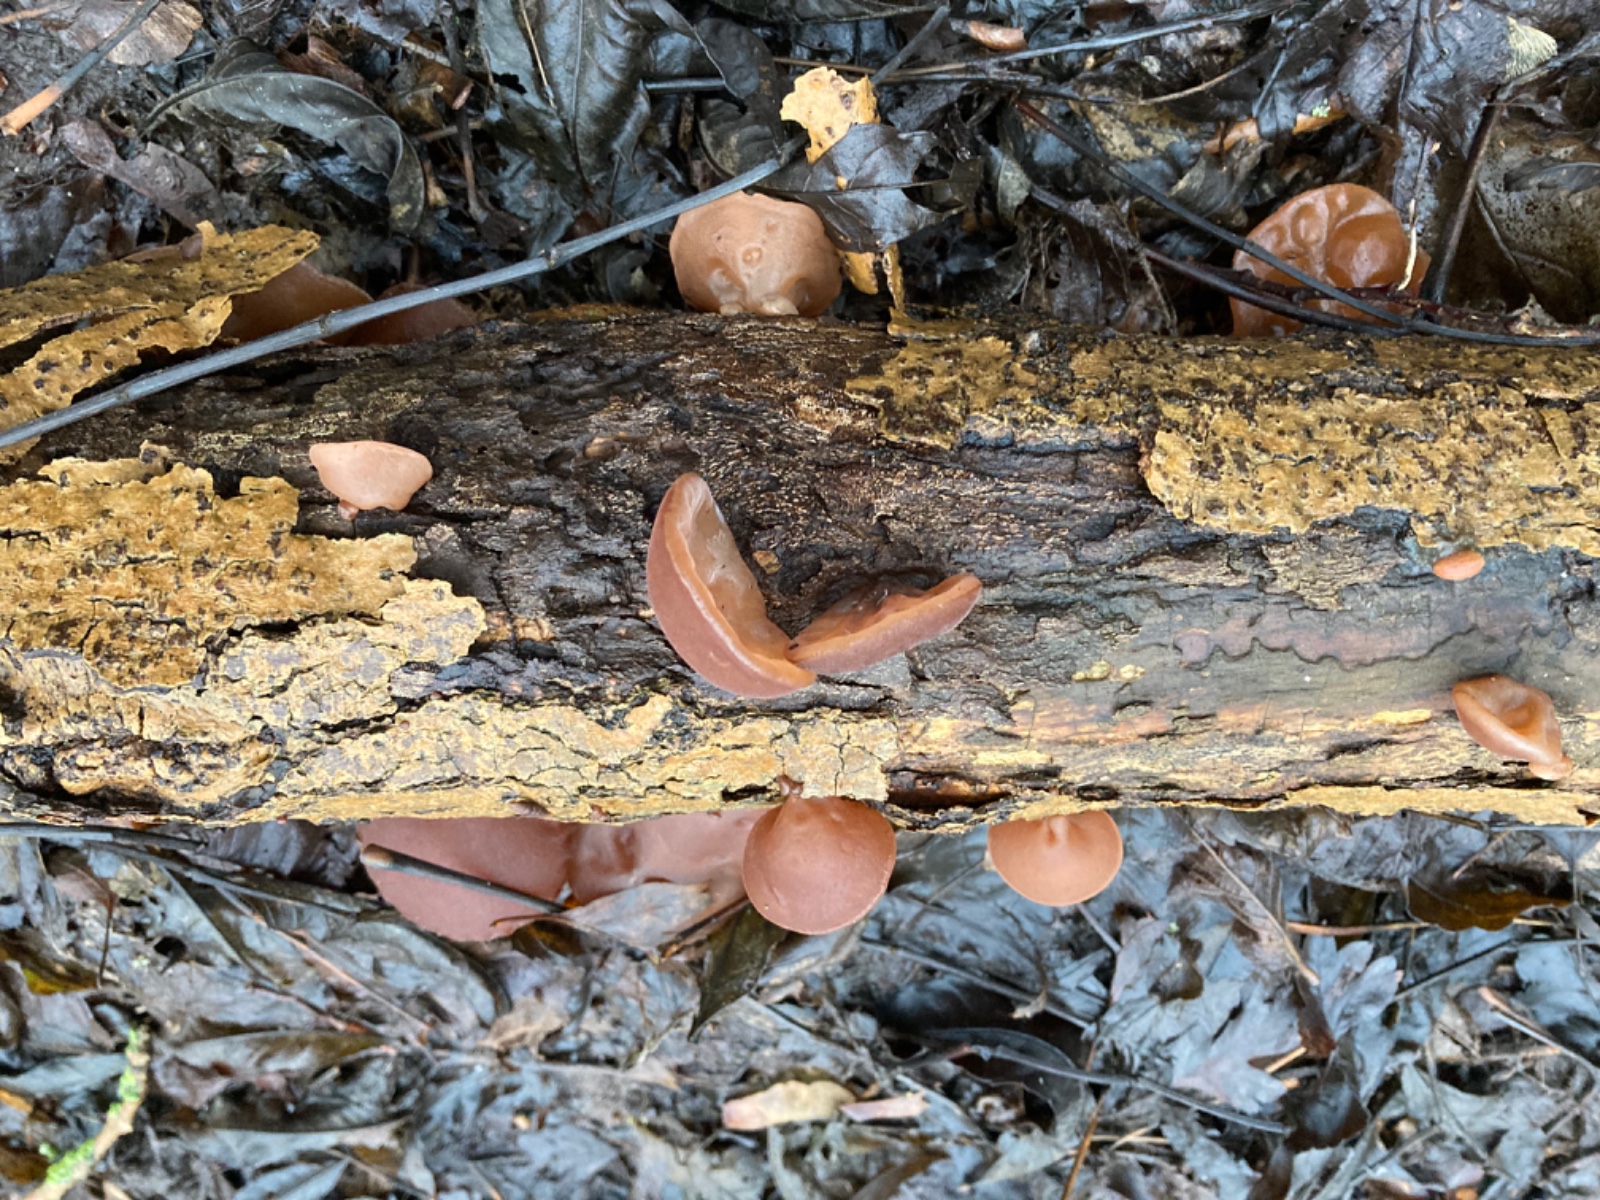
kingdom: Fungi
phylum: Basidiomycota
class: Agaricomycetes
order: Auriculariales
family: Auriculariaceae
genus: Auricularia
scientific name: Auricularia auricula-judae
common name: almindelig judasøre
